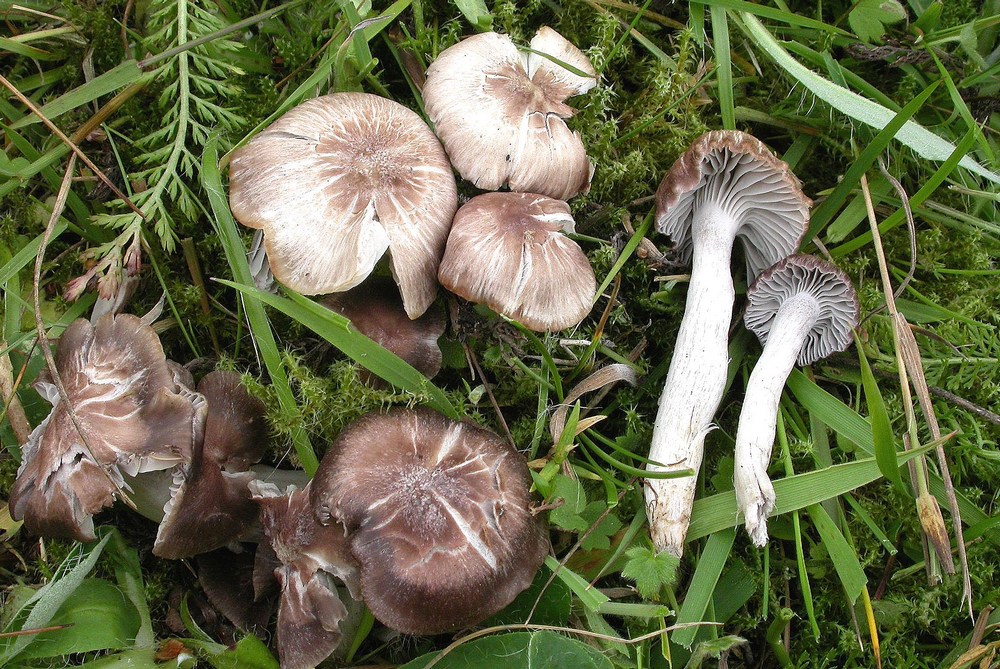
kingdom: Fungi
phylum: Basidiomycota
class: Agaricomycetes
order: Agaricales
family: Hygrophoraceae
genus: Cuphophyllus
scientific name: Cuphophyllus
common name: vokshat
